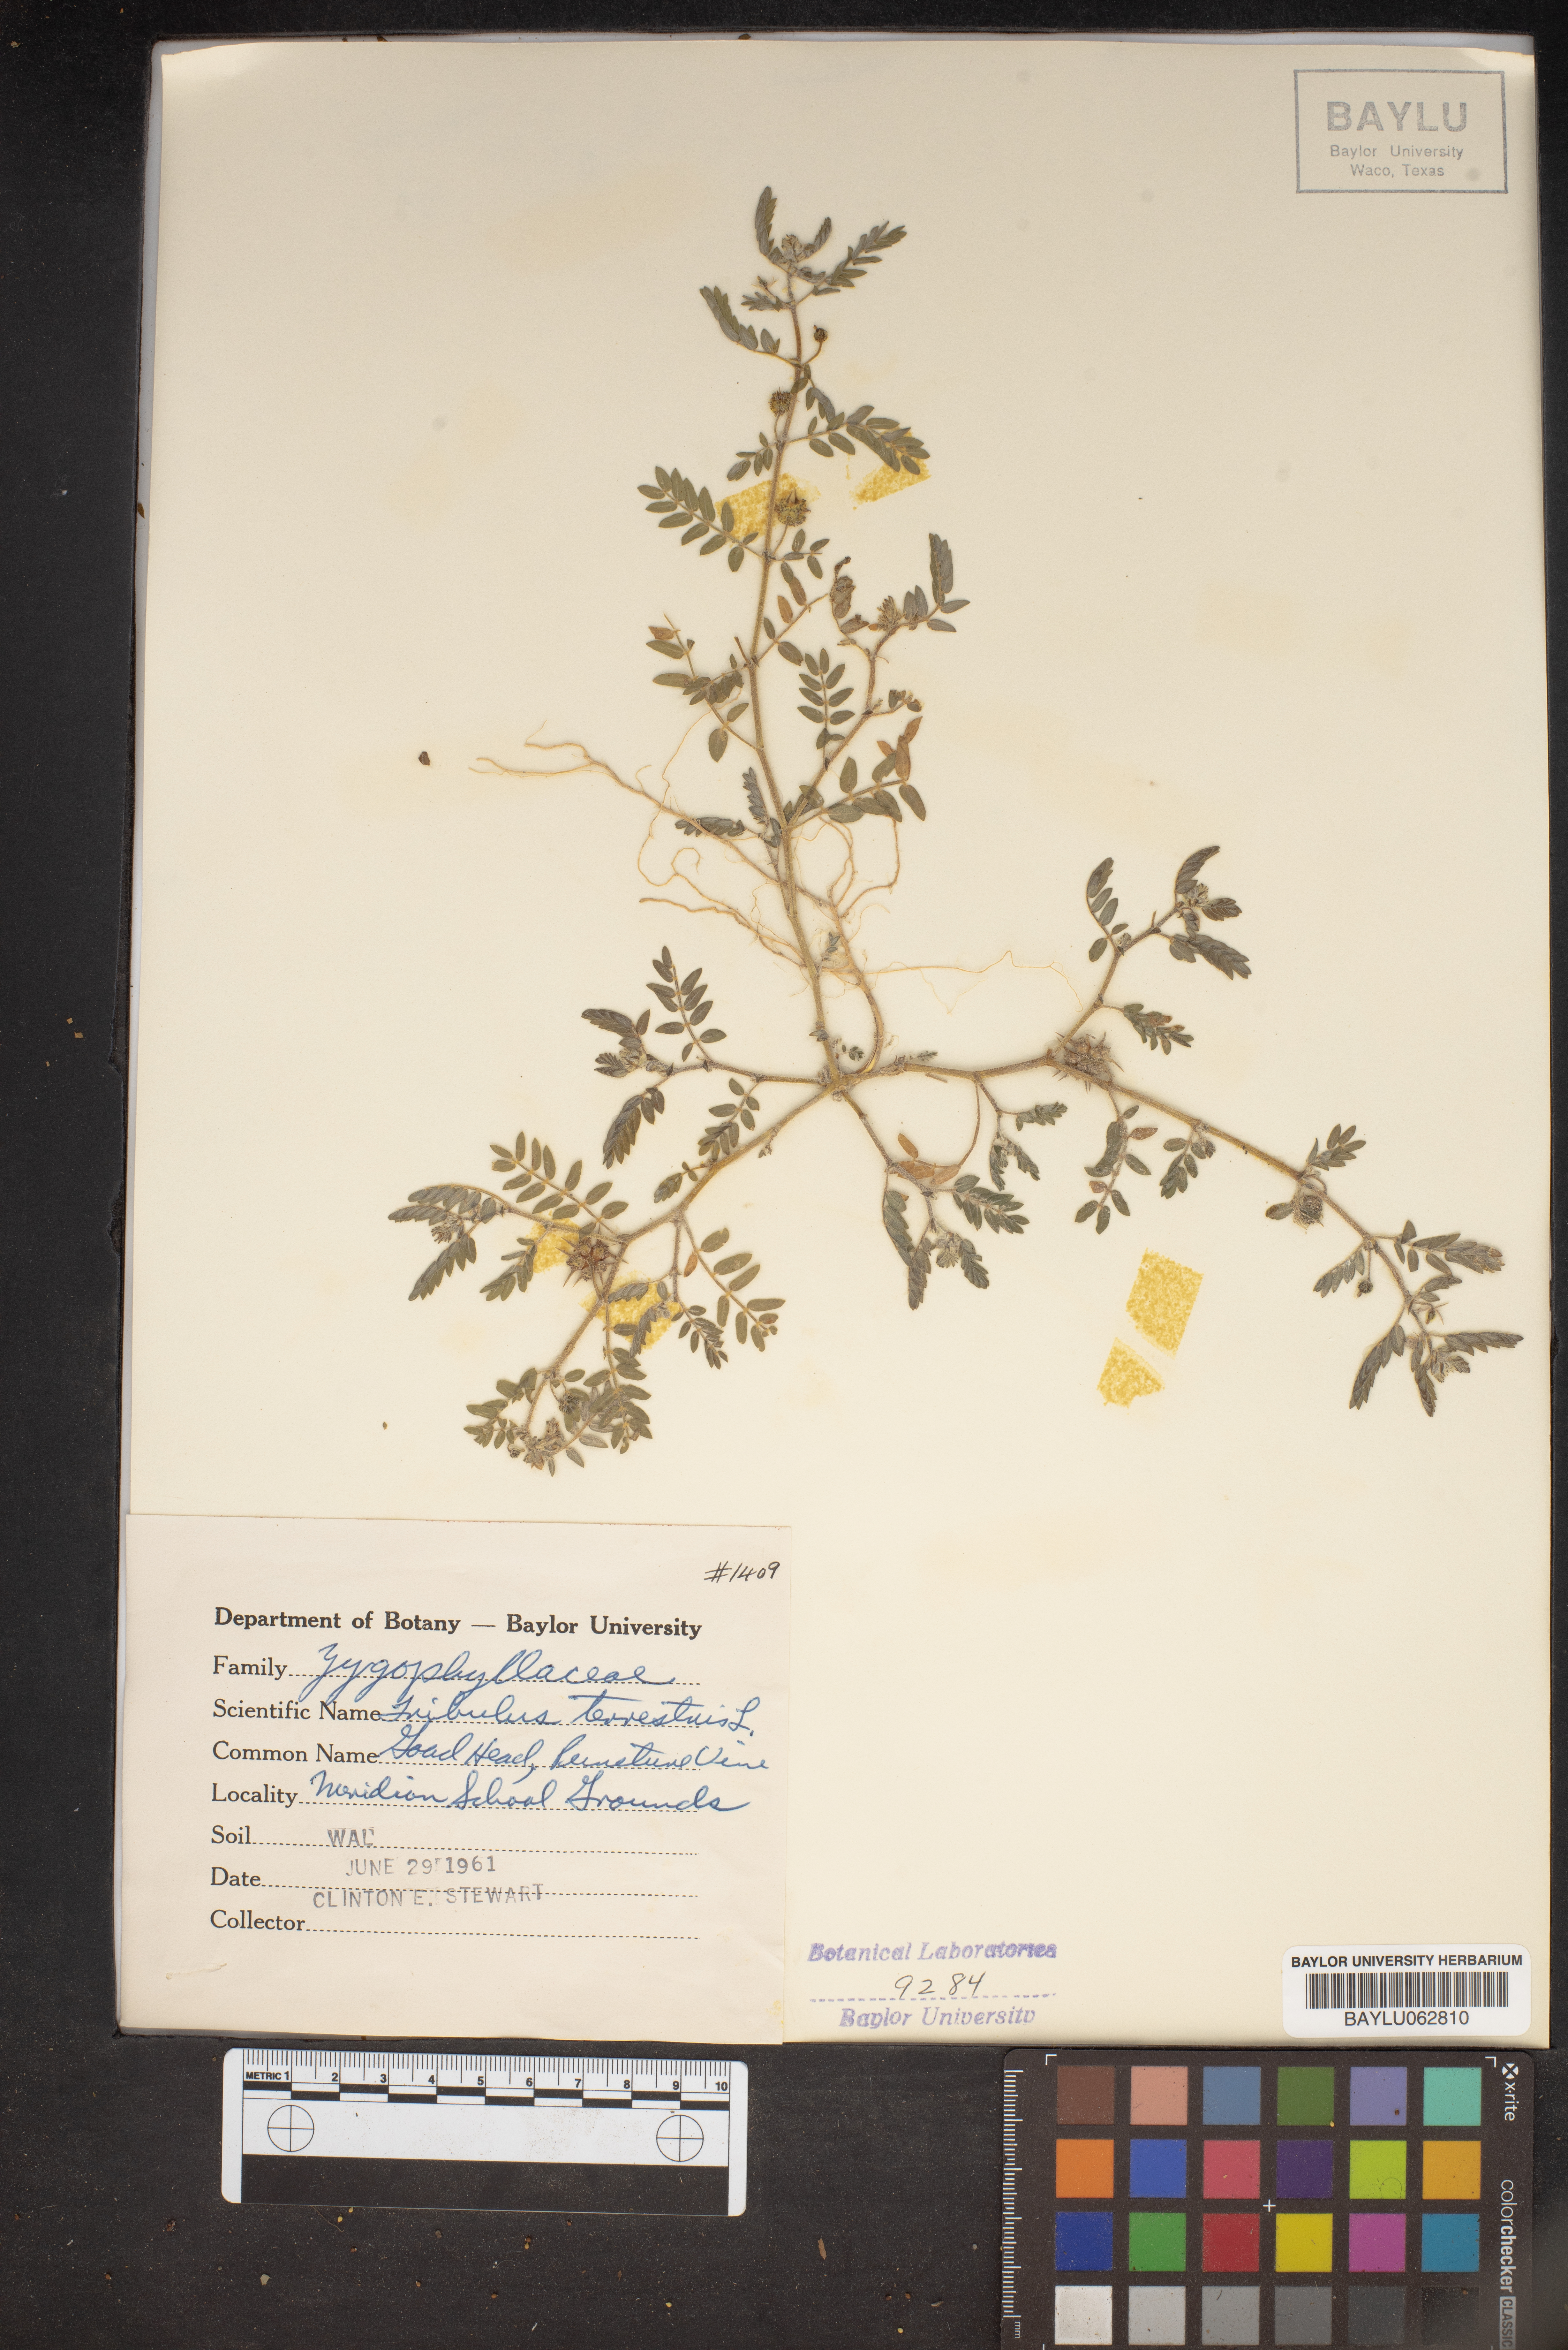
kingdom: Plantae
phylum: Tracheophyta
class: Magnoliopsida
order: Zygophyllales
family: Zygophyllaceae
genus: Tribulus
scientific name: Tribulus terrestris
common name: Puncturevine
